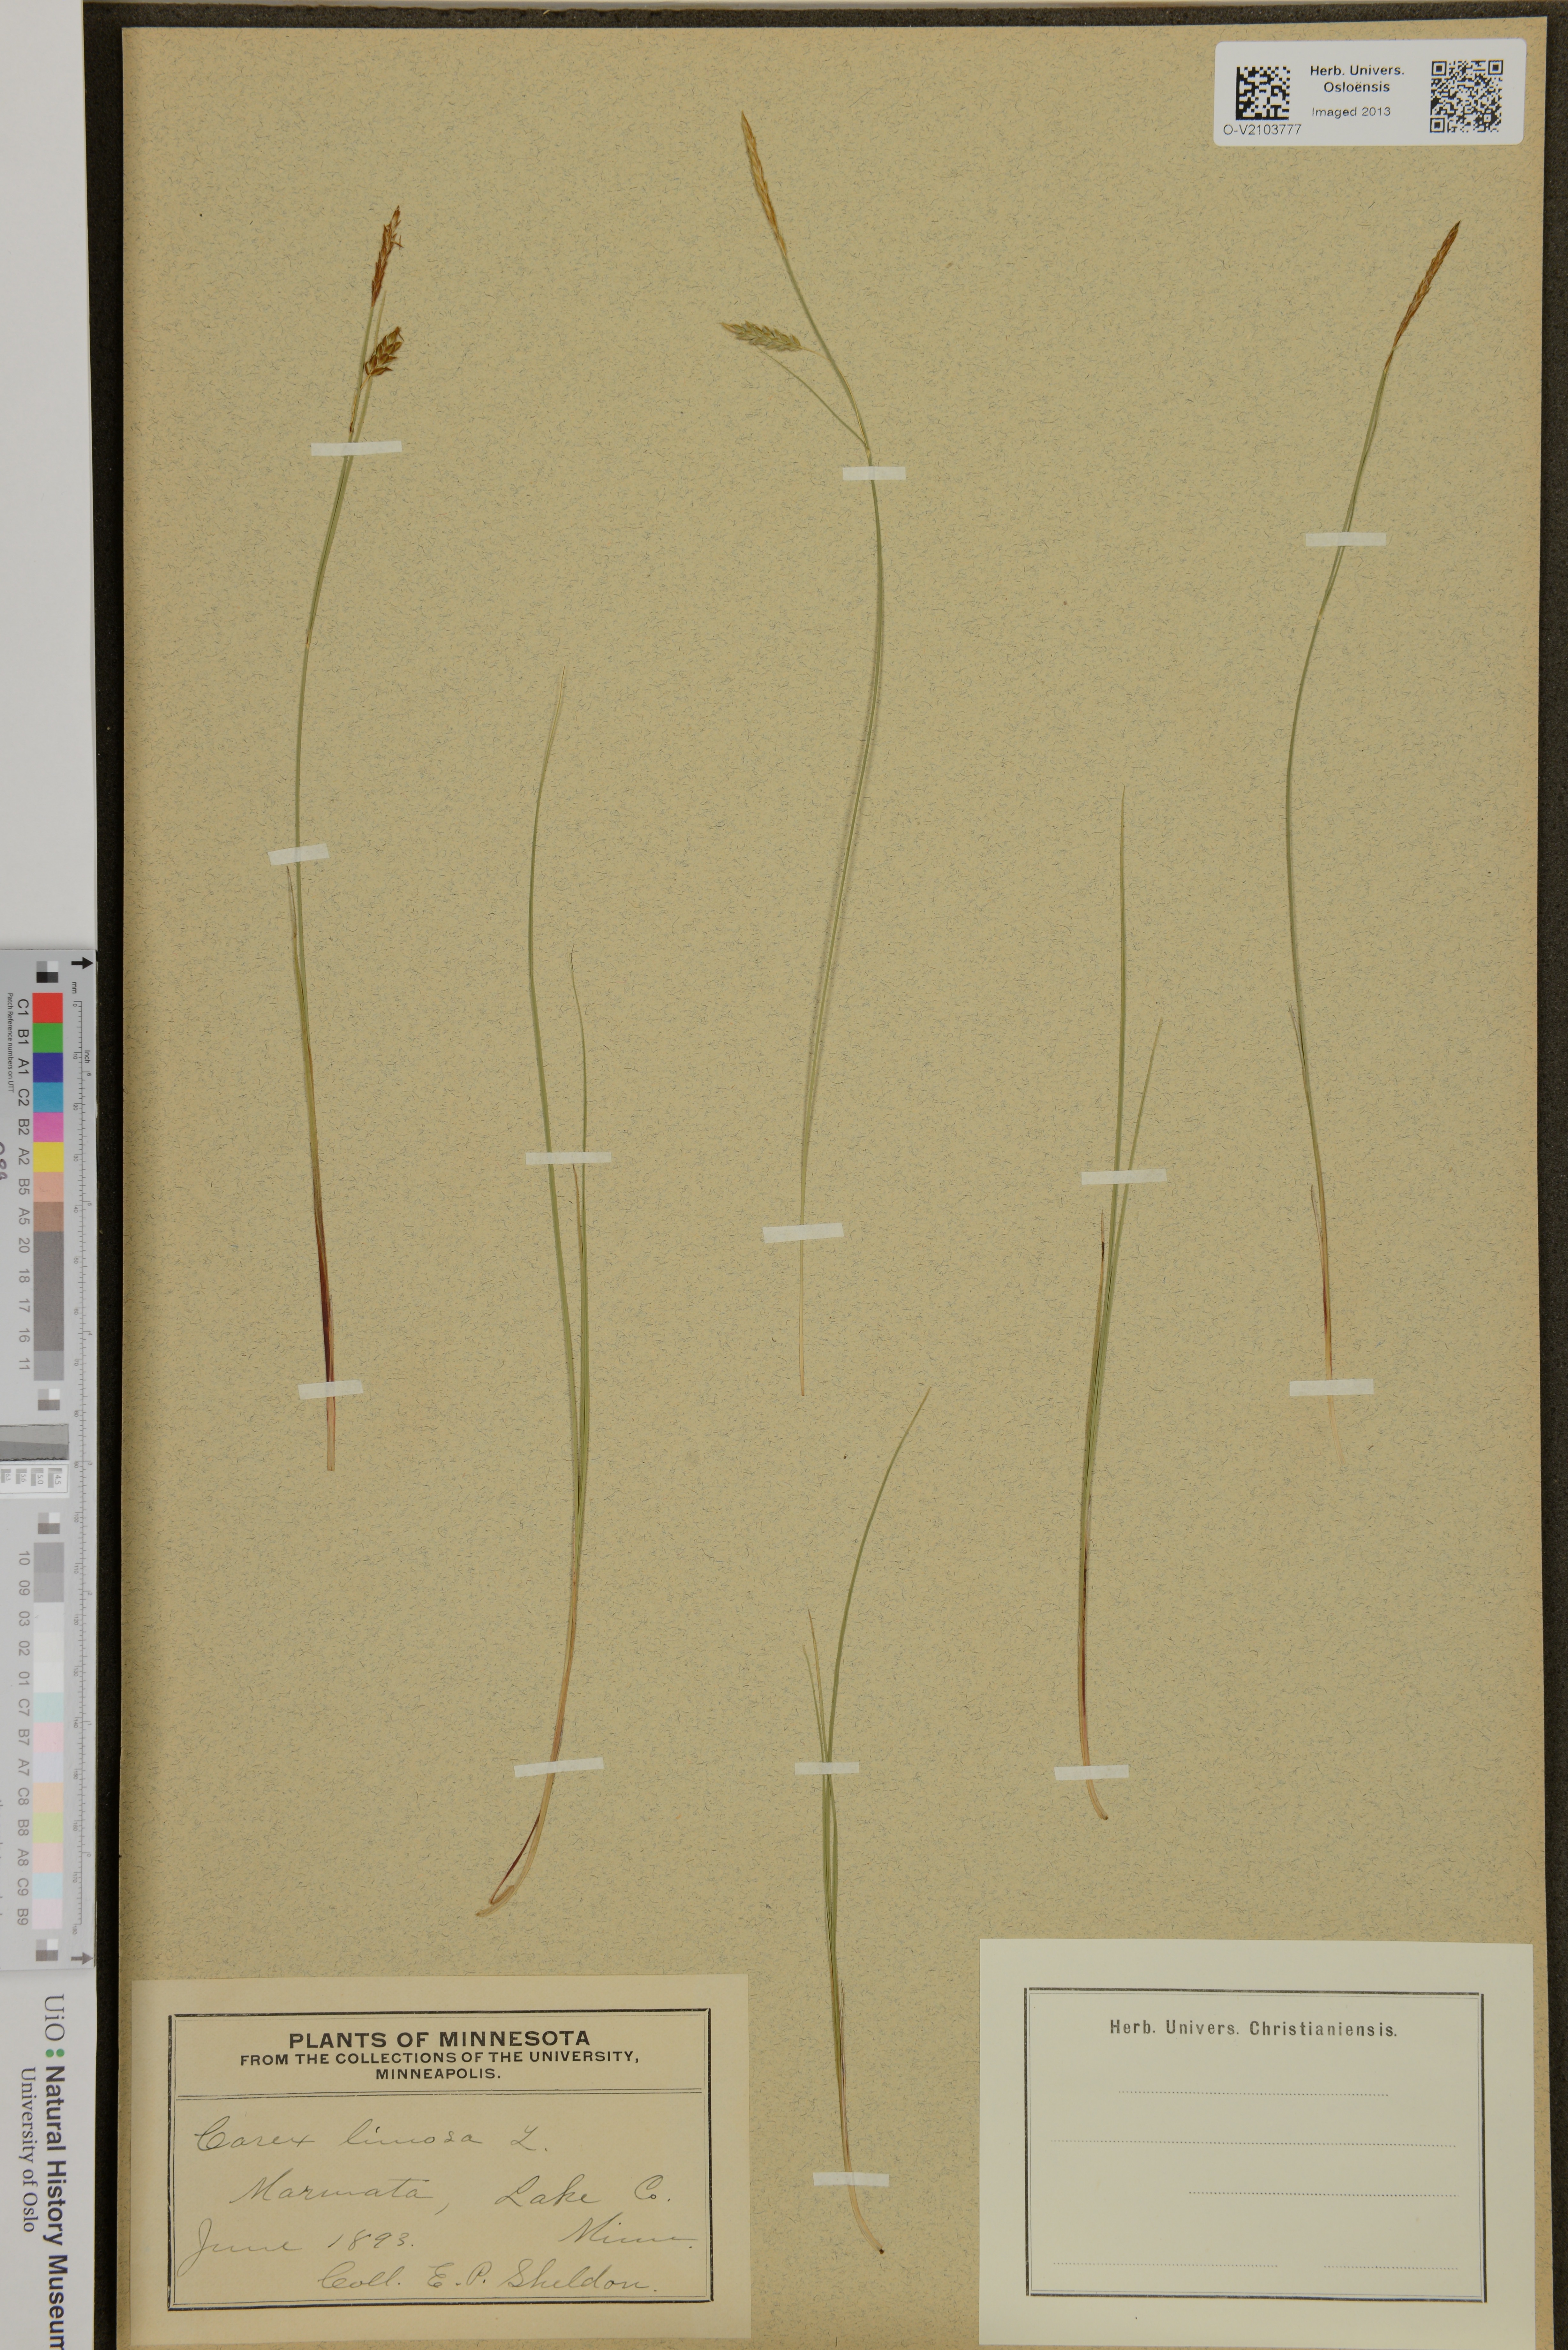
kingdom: Plantae
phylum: Tracheophyta
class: Liliopsida
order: Poales
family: Cyperaceae
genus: Carex
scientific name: Carex limosa
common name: Bog sedge
